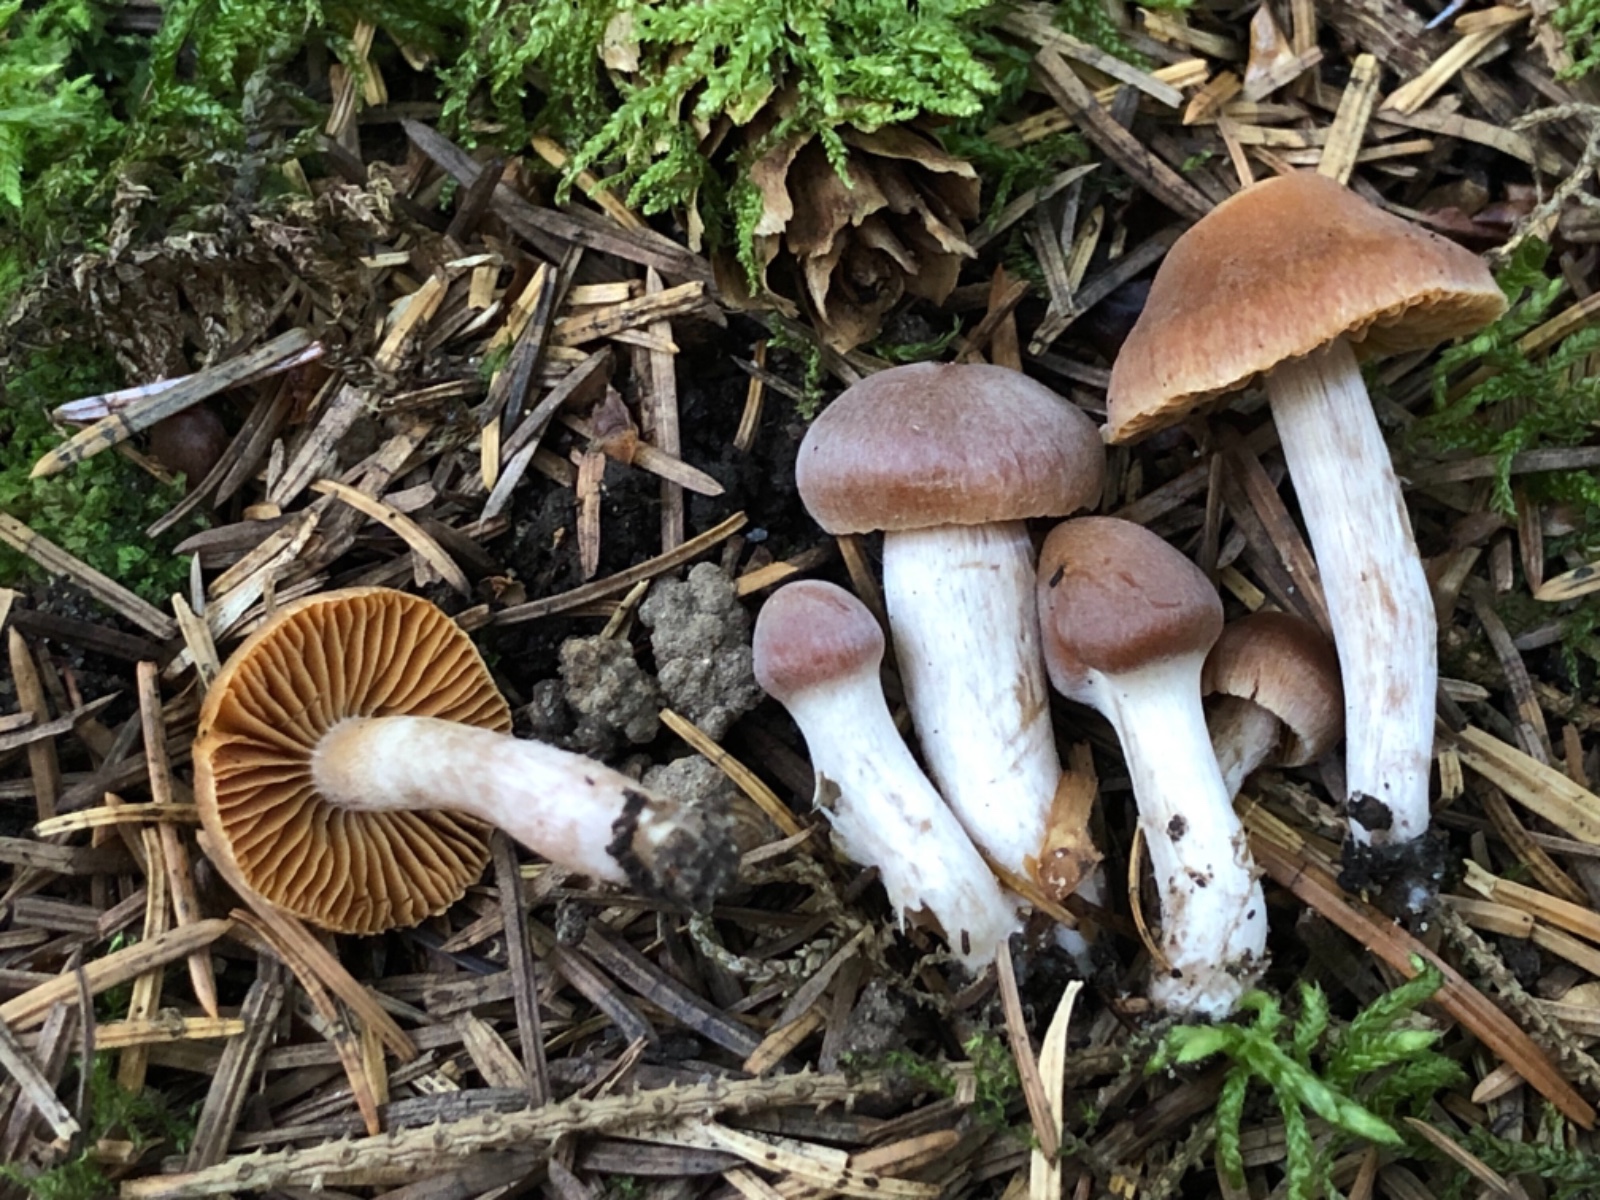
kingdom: Fungi
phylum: Basidiomycota
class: Agaricomycetes
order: Agaricales
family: Cortinariaceae
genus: Cortinarius
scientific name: Cortinarius pallidostriatoides
